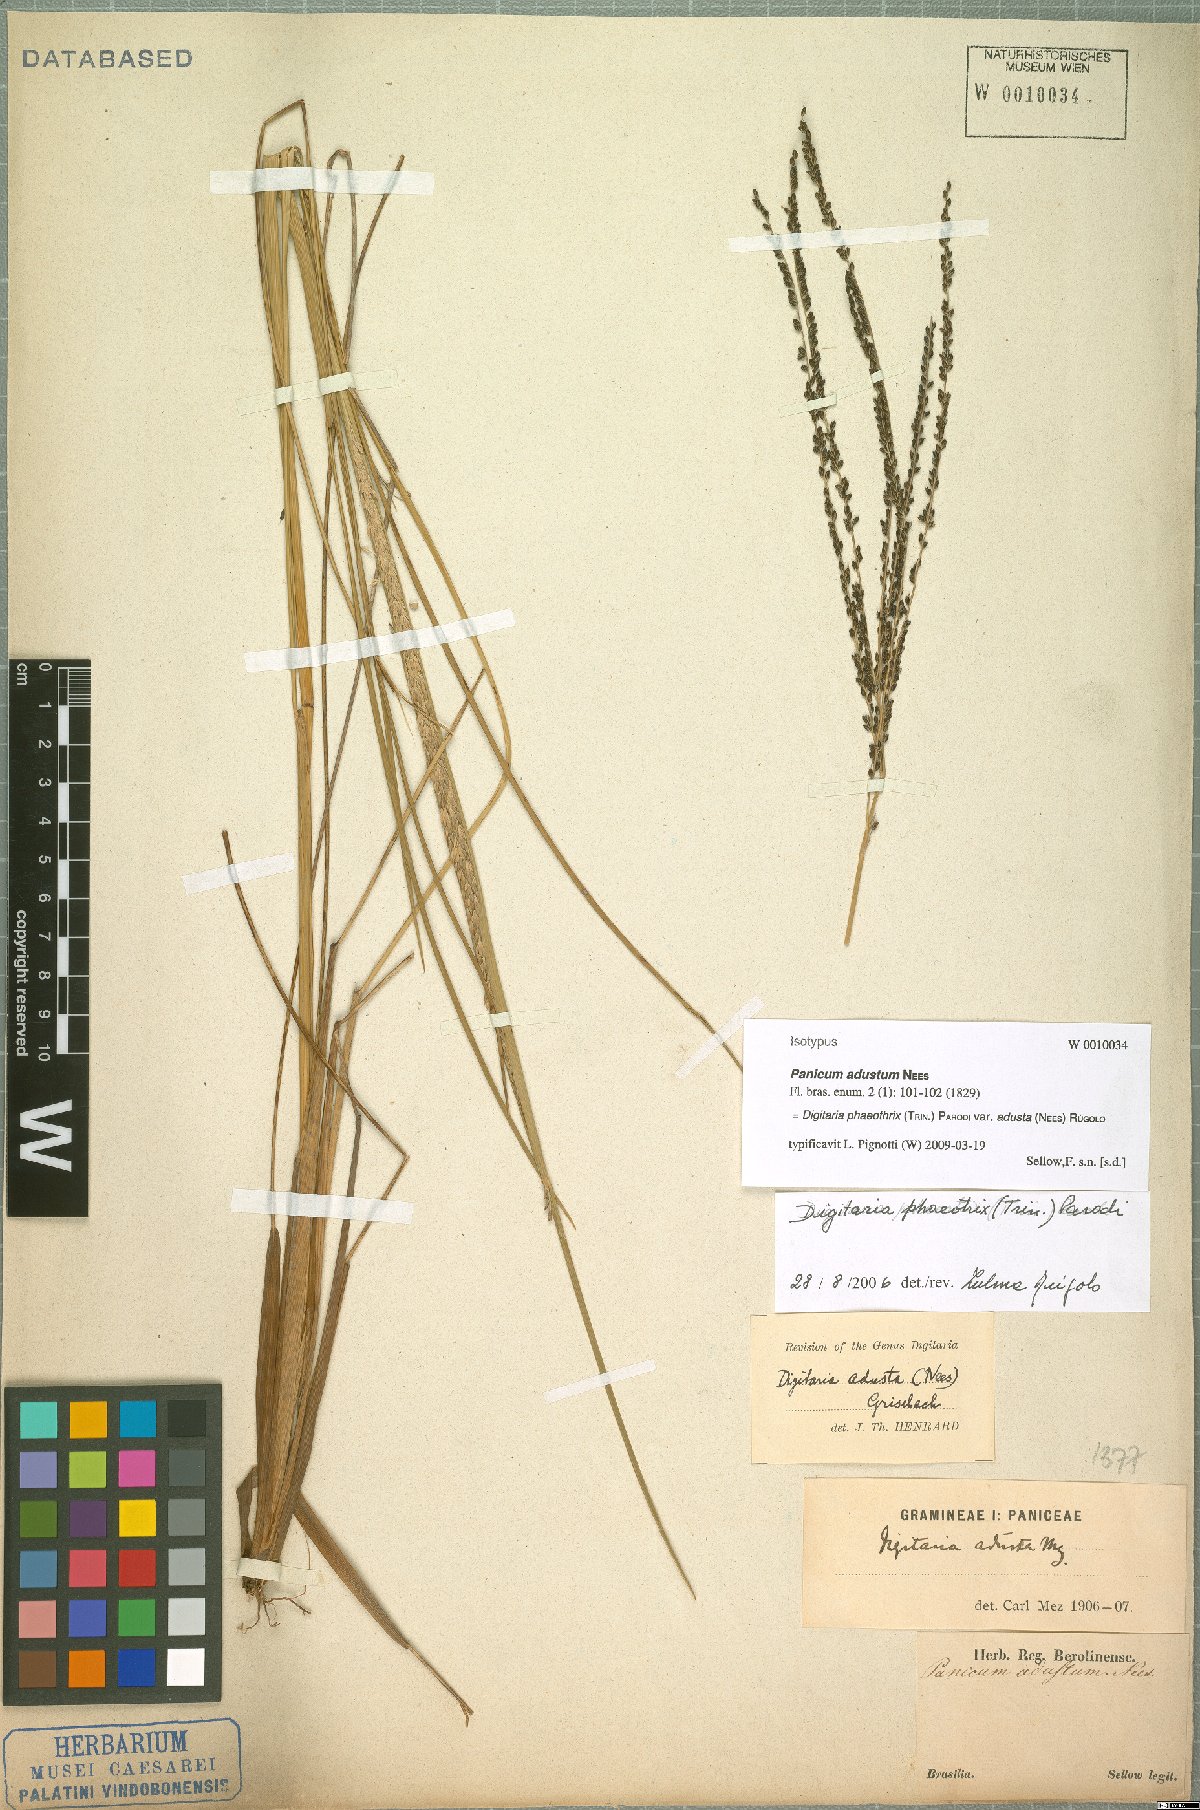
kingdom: Plantae
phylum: Tracheophyta
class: Liliopsida
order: Poales
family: Poaceae
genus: Digitaria
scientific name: Digitaria phaeothrix
